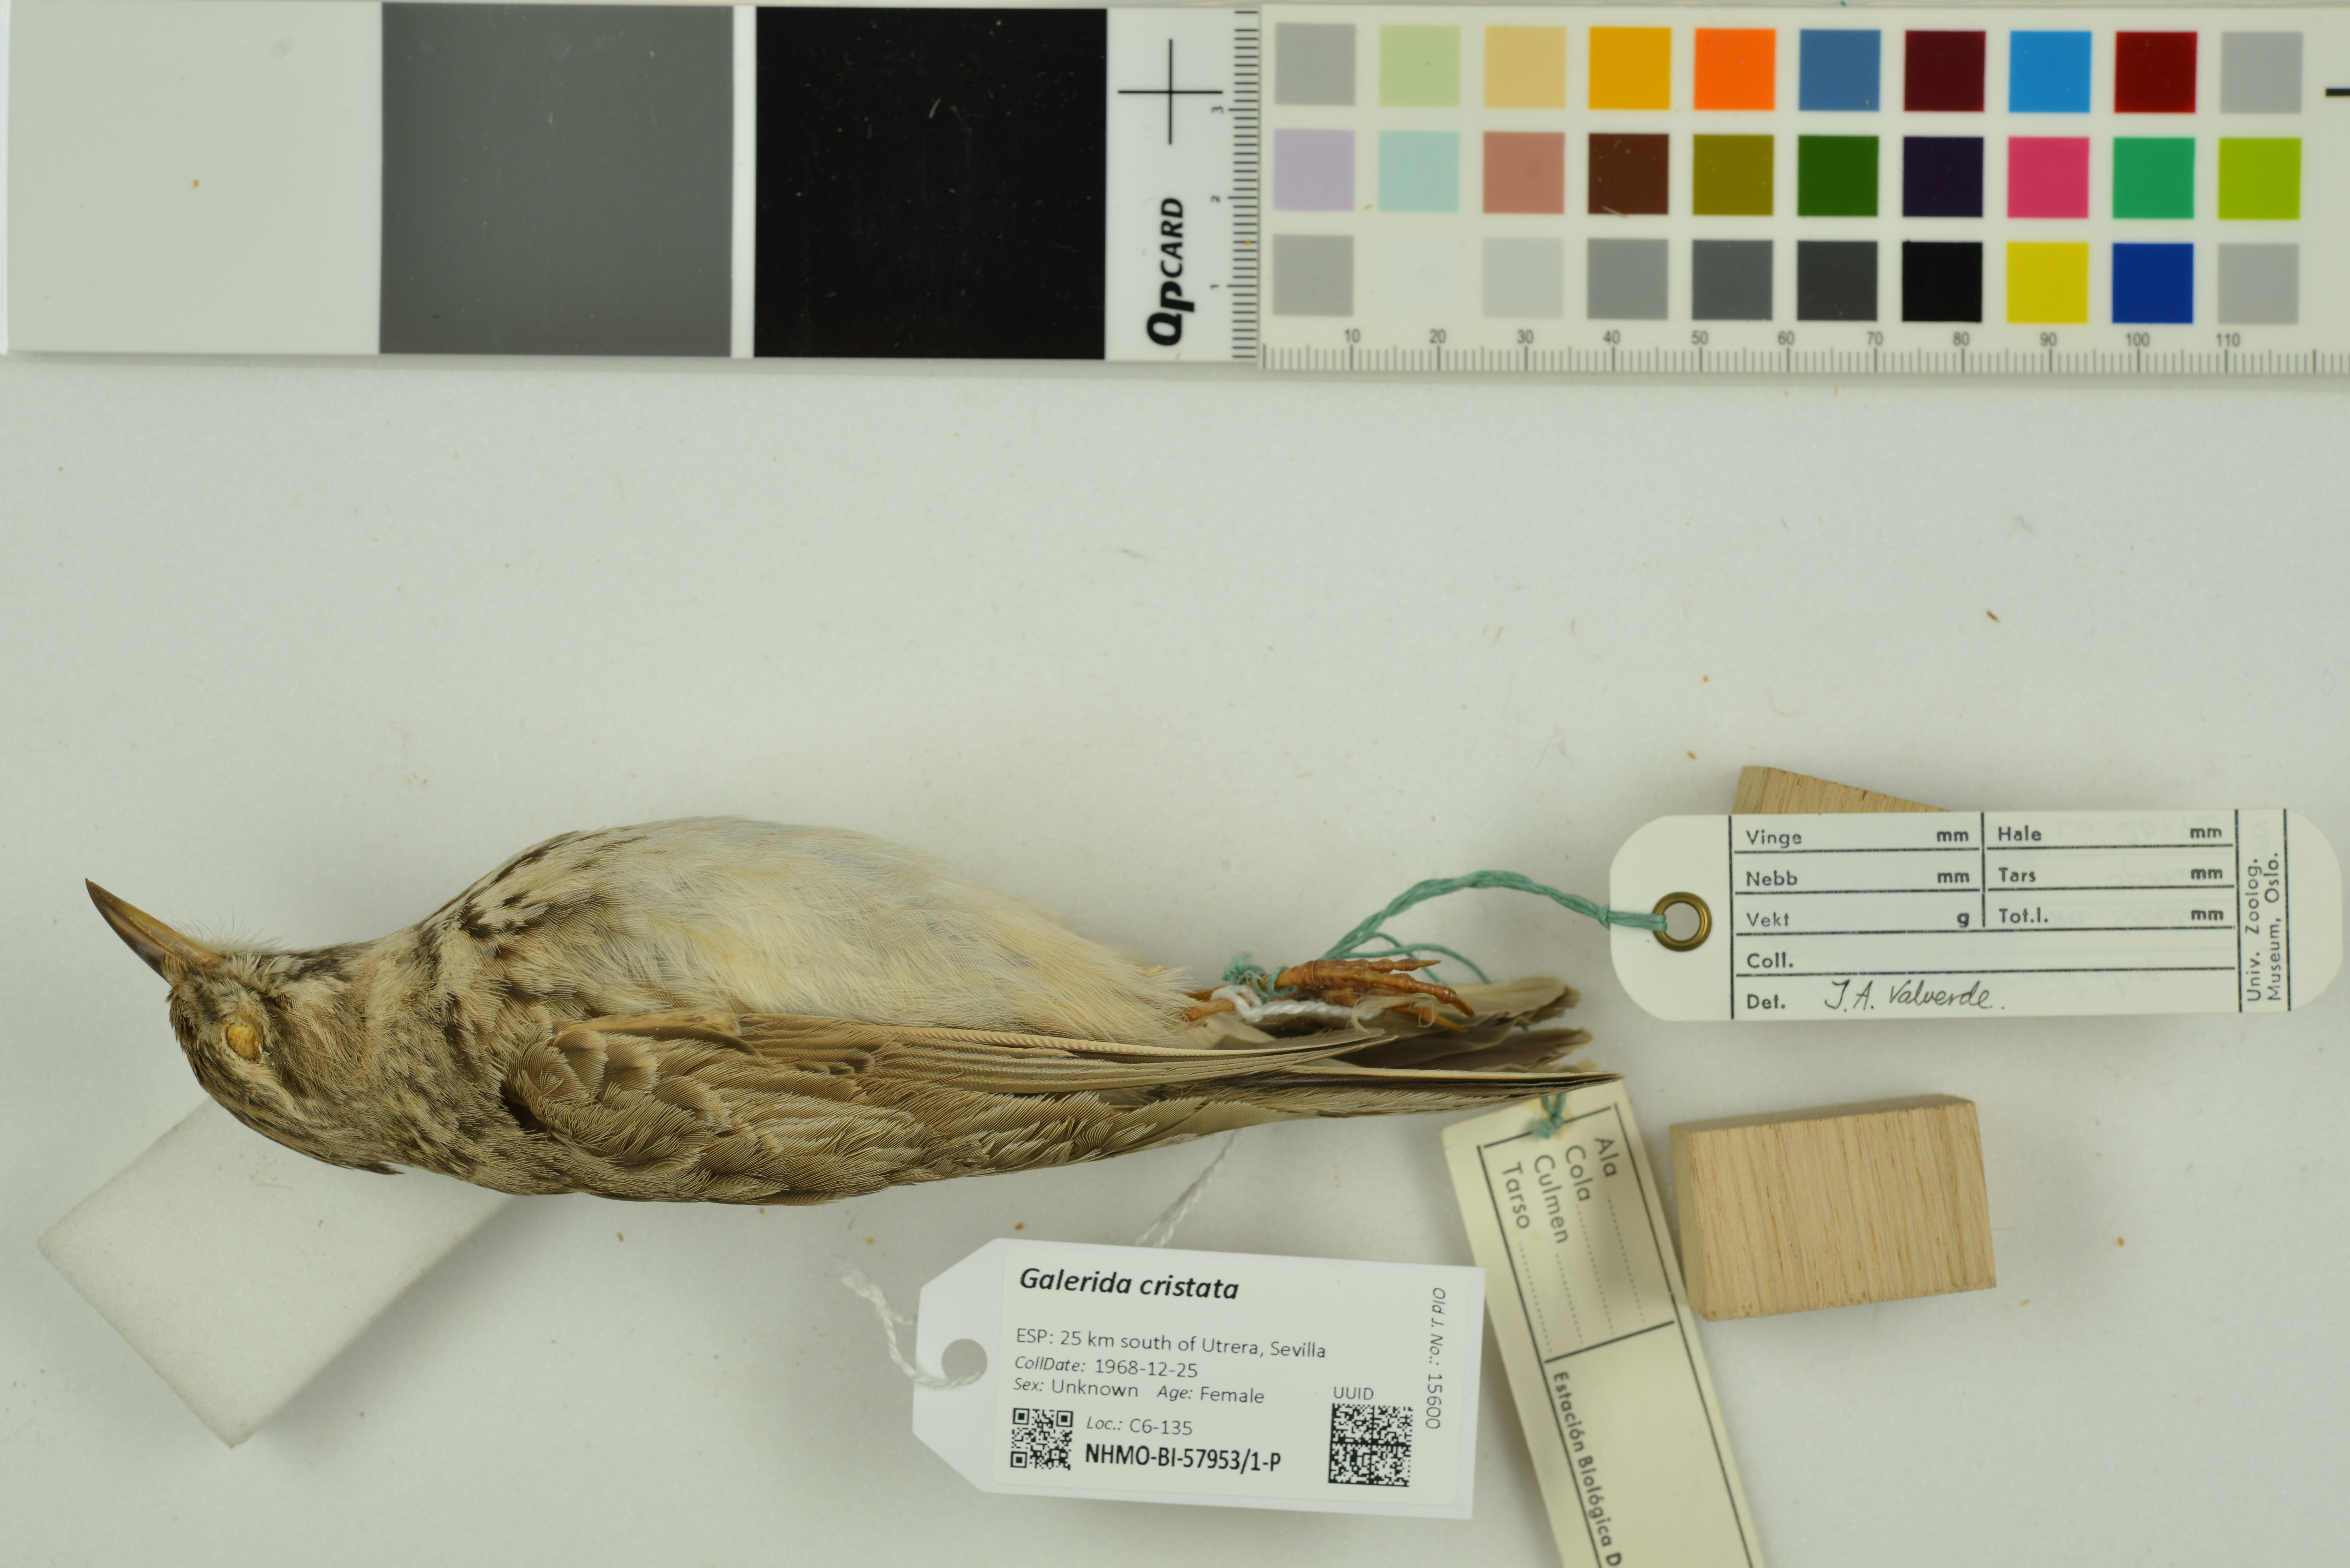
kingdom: Animalia
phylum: Chordata
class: Aves
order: Passeriformes
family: Alaudidae
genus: Galerida
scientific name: Galerida cristata
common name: Crested lark
